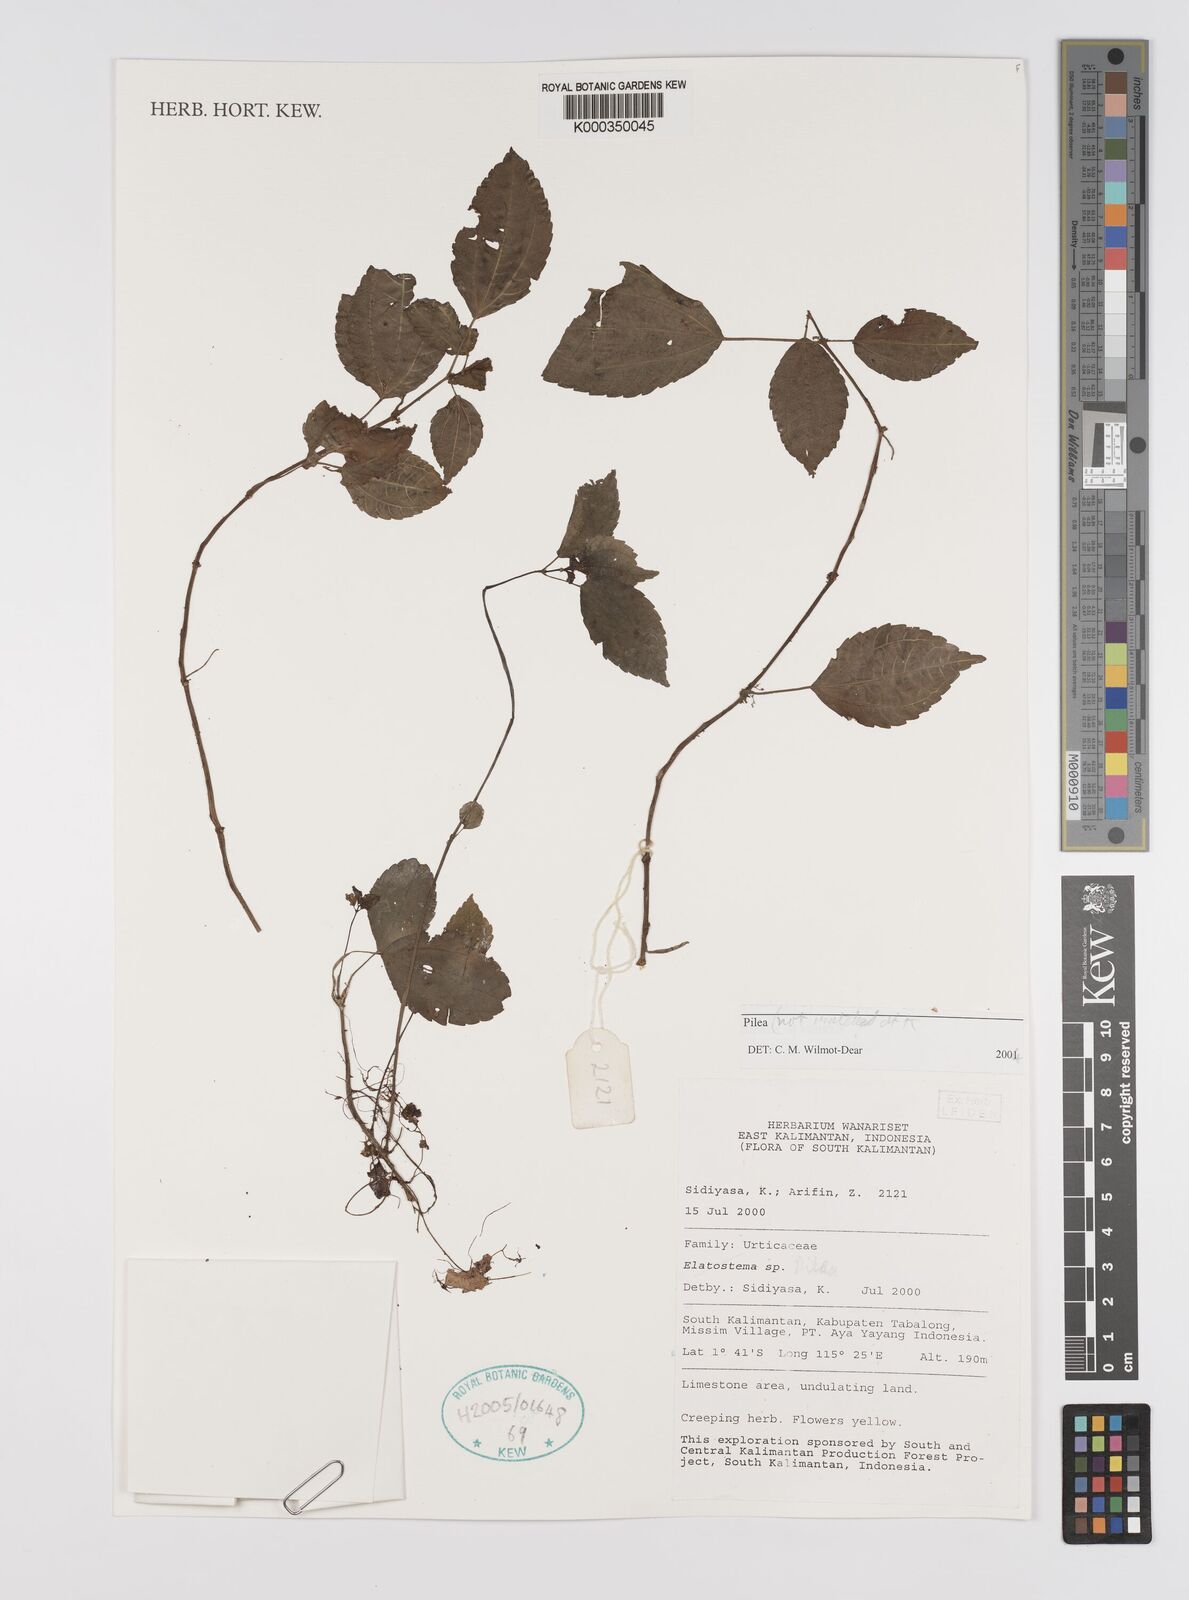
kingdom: Plantae
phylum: Tracheophyta
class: Magnoliopsida
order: Rosales
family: Urticaceae
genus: Pilea
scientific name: Pilea
